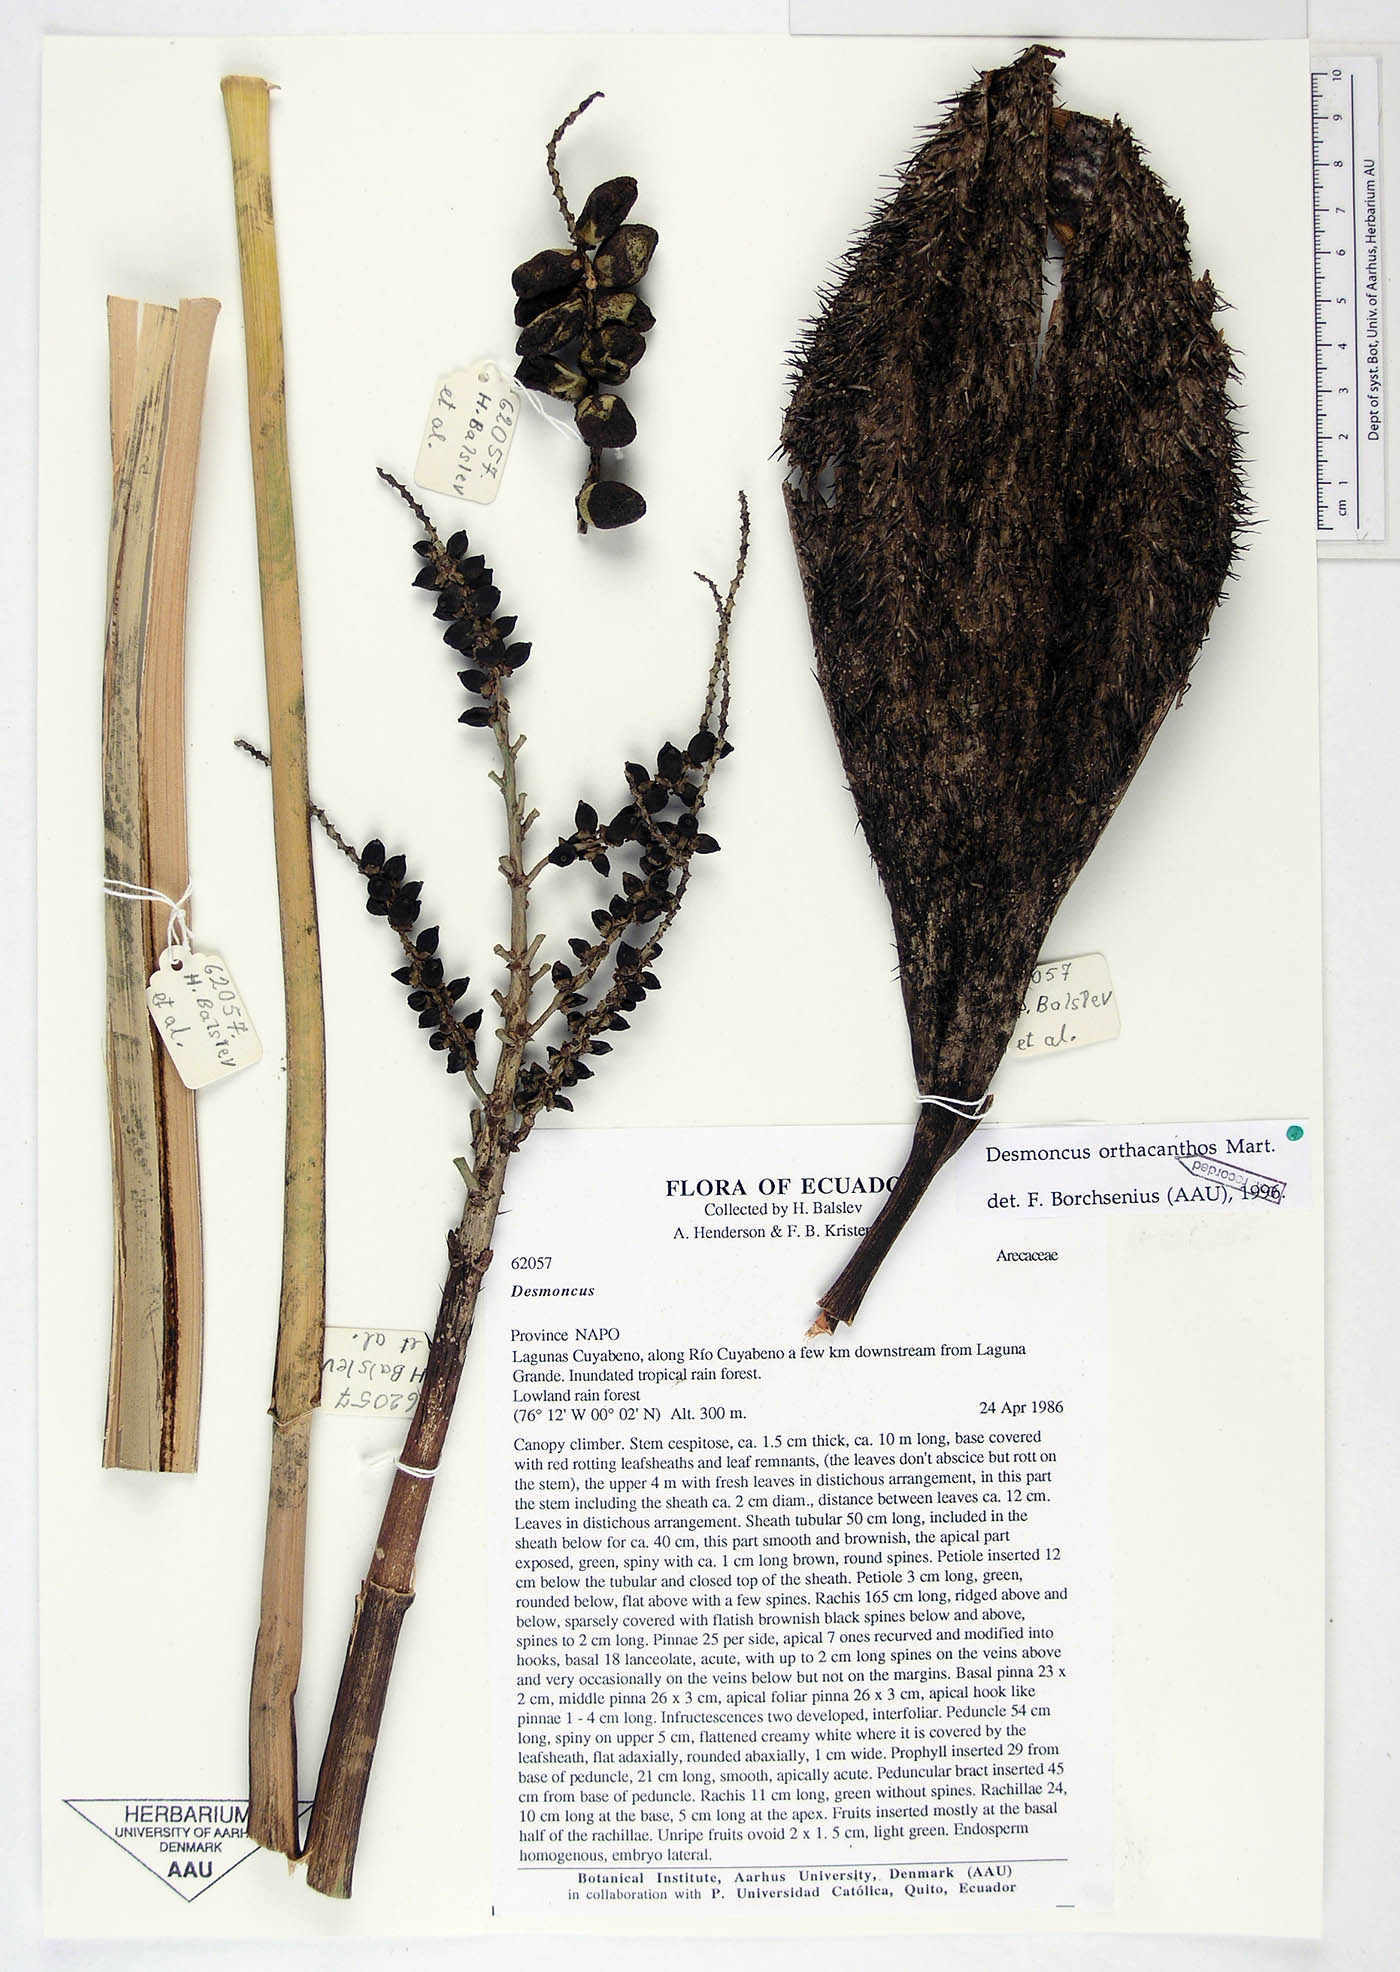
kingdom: Plantae
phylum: Tracheophyta
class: Liliopsida
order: Arecales
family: Arecaceae
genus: Desmoncus
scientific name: Desmoncus orthacanthos
